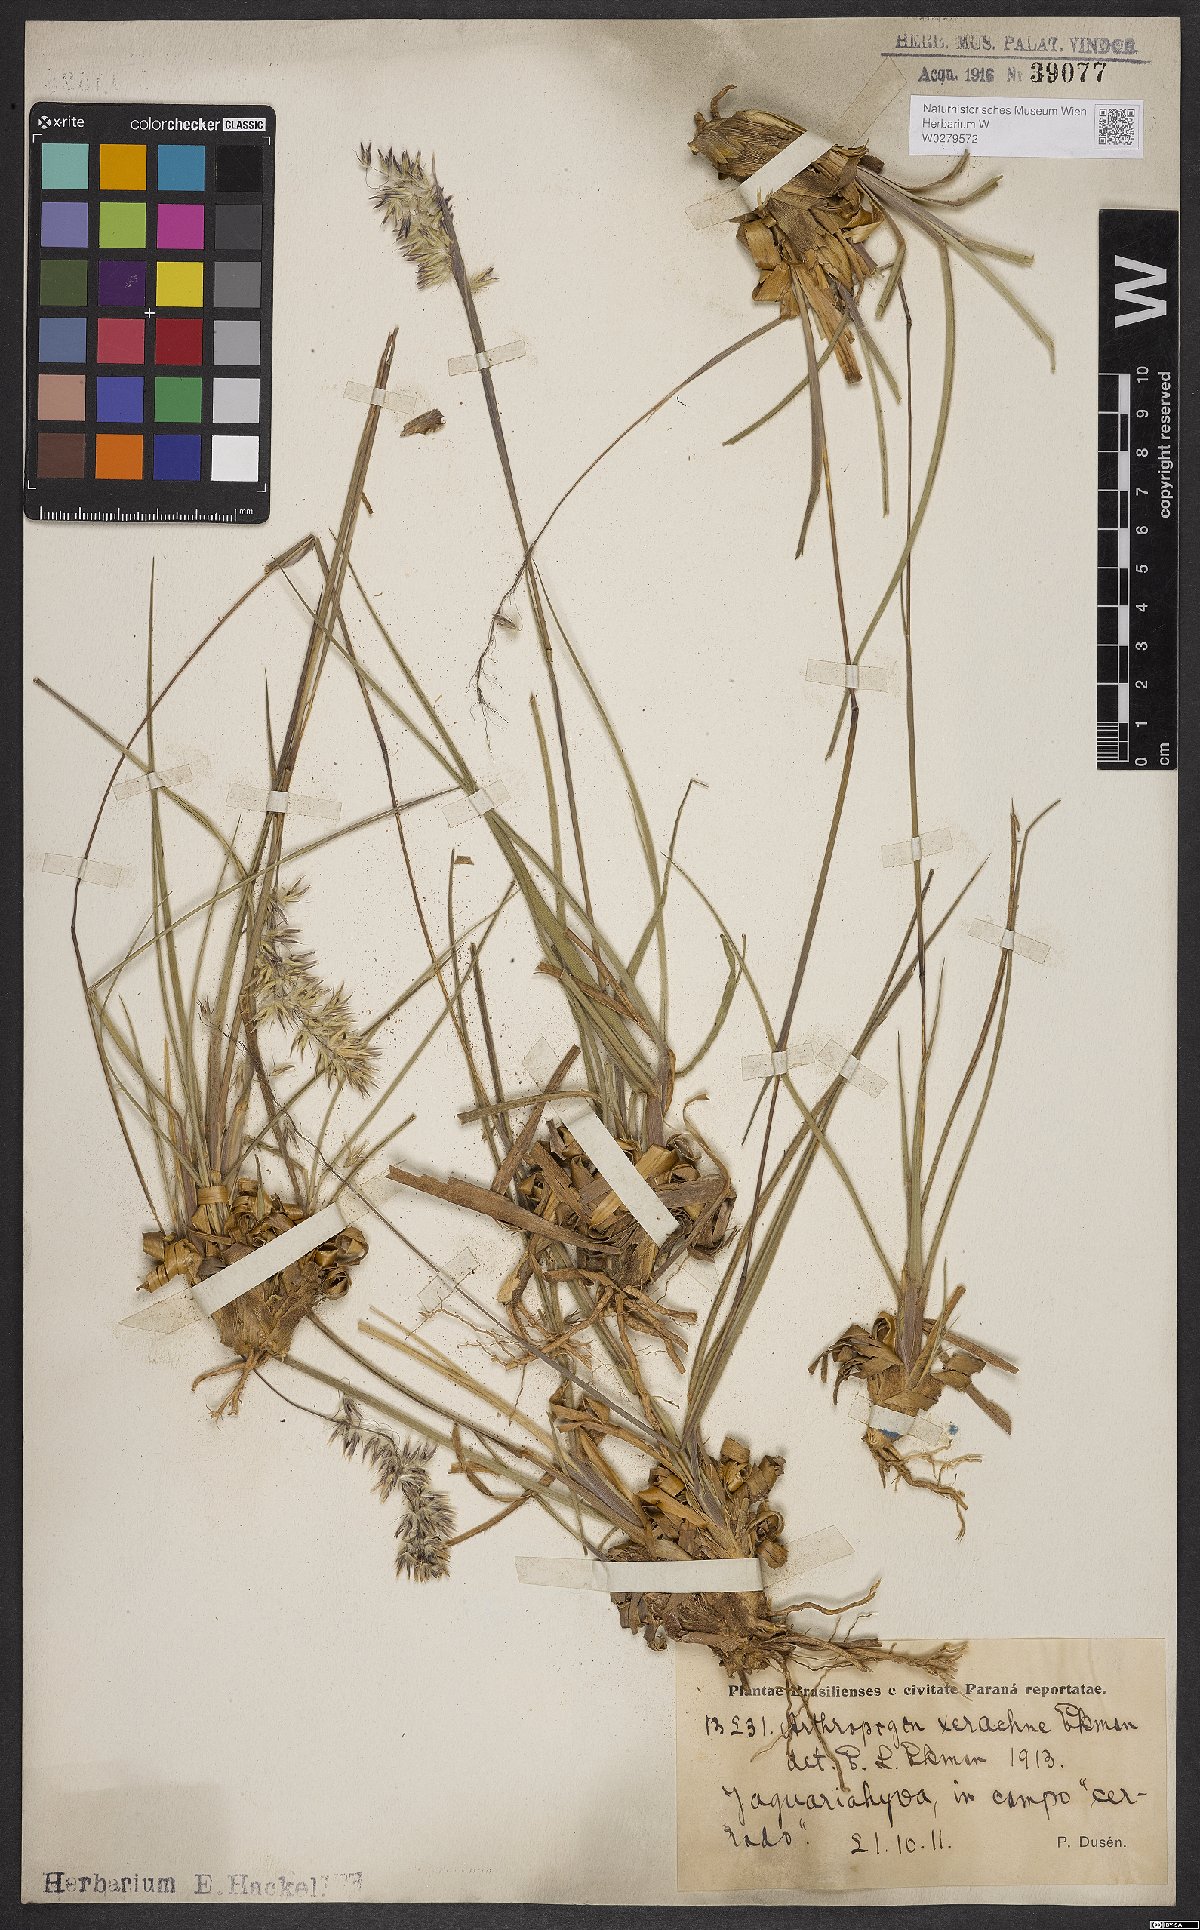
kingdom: Plantae
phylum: Tracheophyta
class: Liliopsida
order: Poales
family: Poaceae
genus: Arthropogon
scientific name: Arthropogon xerachne
